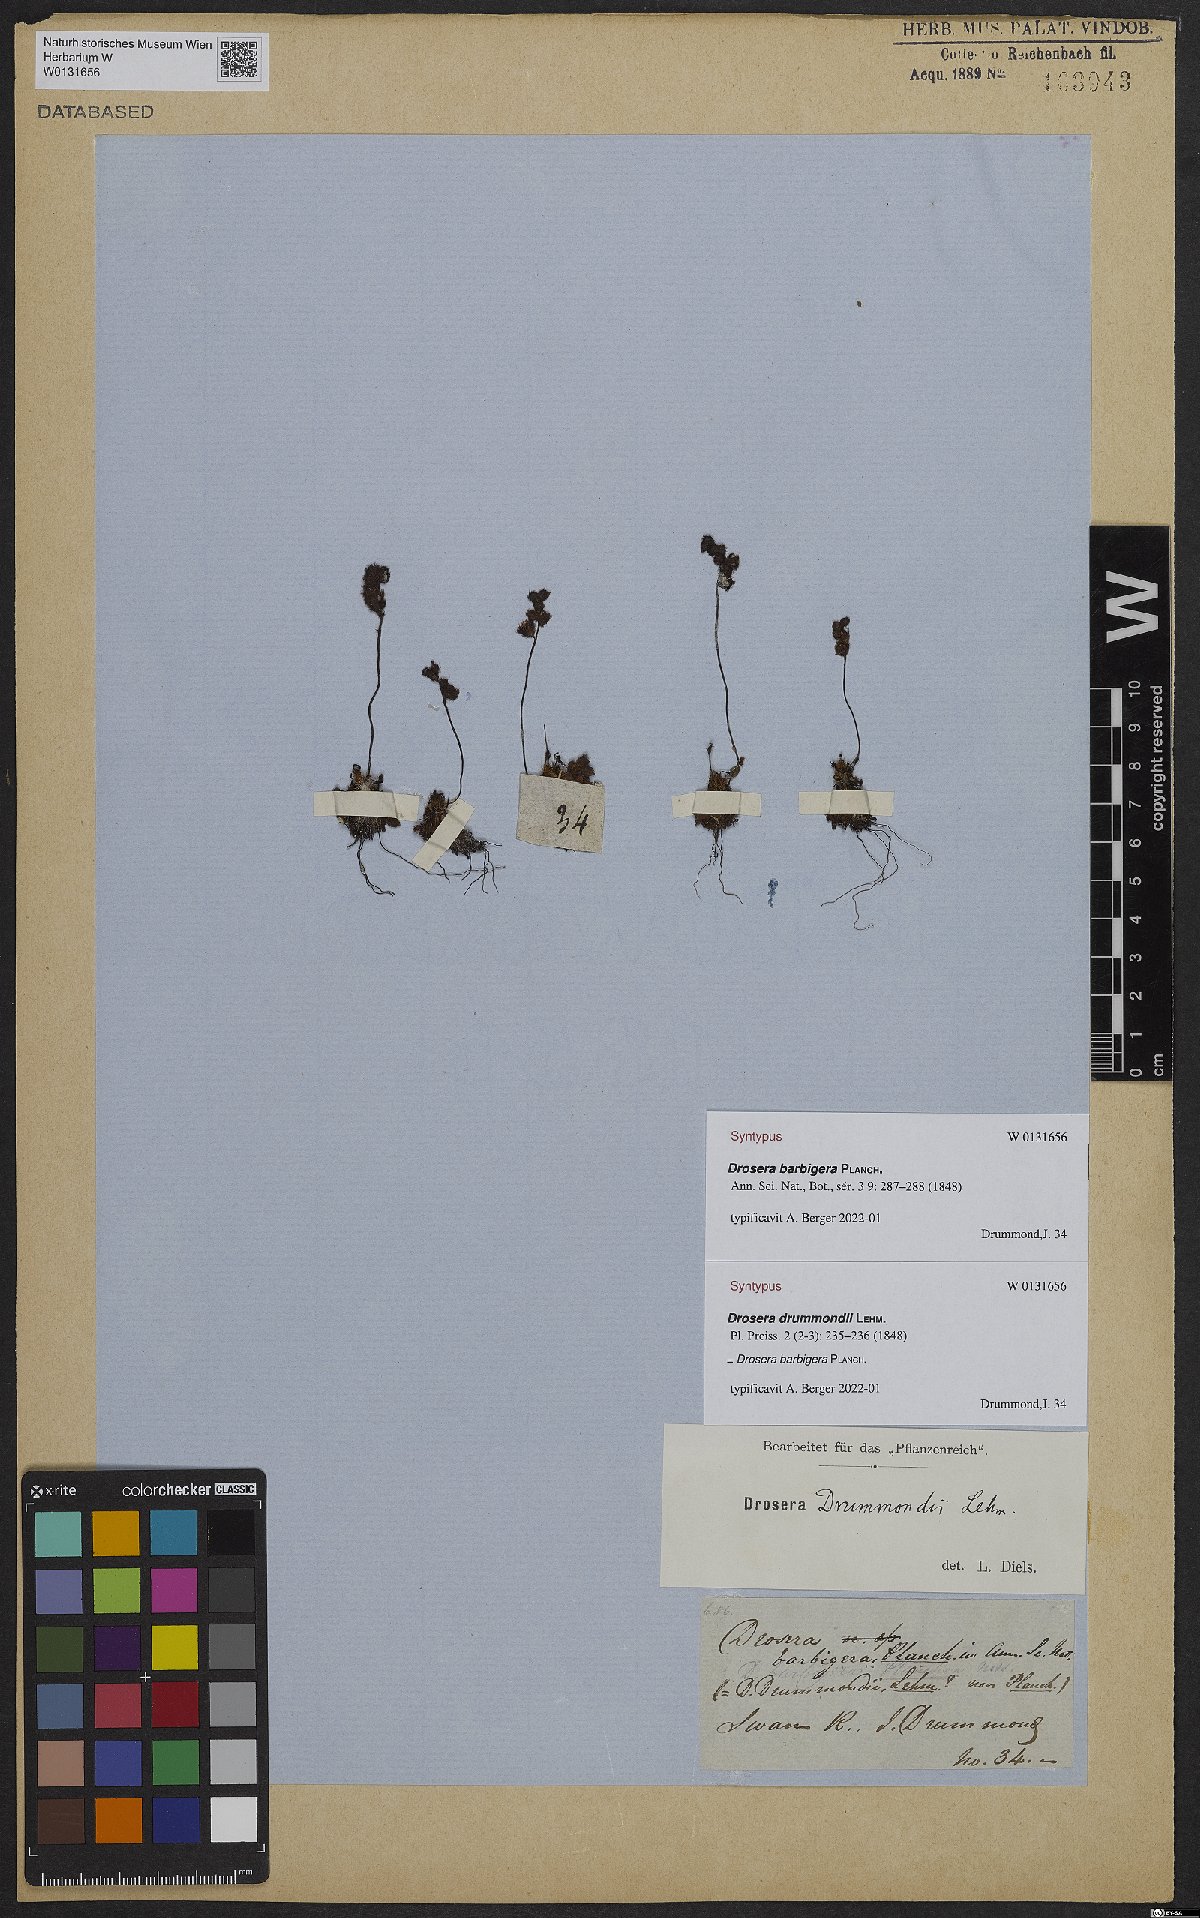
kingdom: Plantae
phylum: Tracheophyta
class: Magnoliopsida
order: Caryophyllales
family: Droseraceae
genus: Drosera
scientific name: Drosera barbigera
